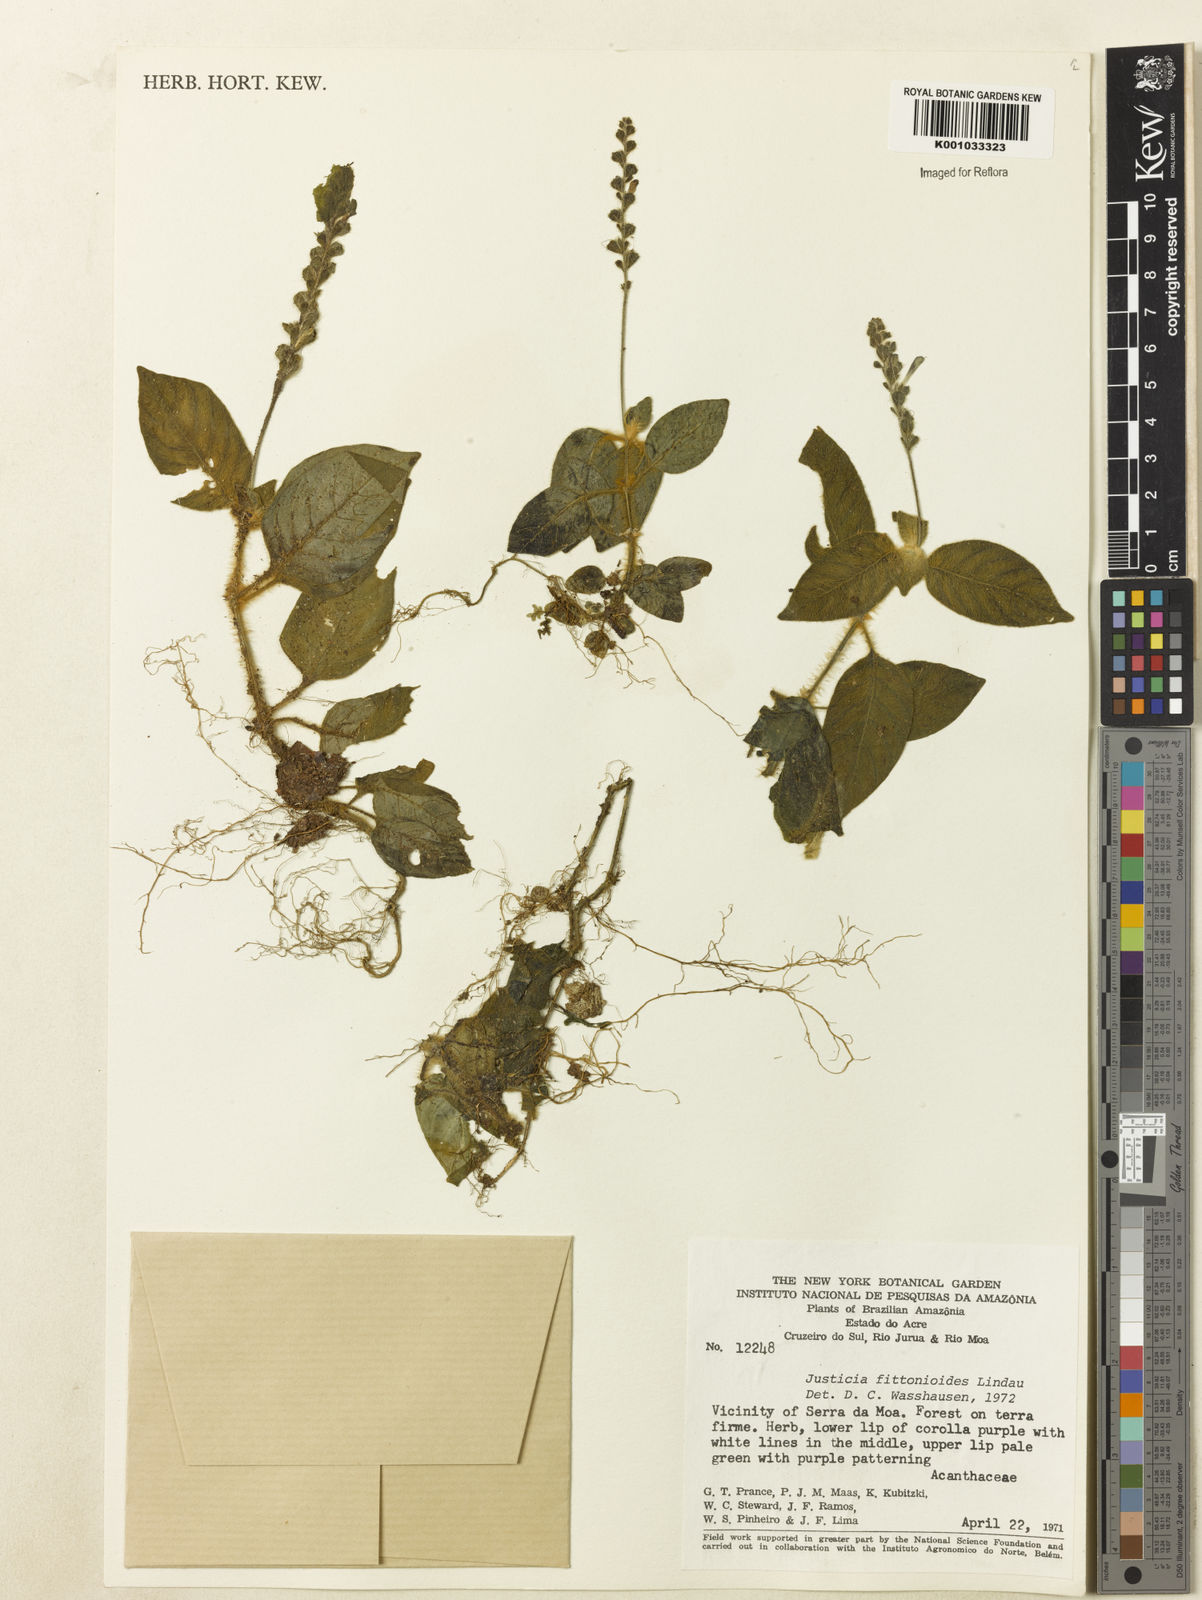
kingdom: Plantae
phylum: Tracheophyta
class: Magnoliopsida
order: Lamiales
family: Acanthaceae
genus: Justicia
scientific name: Justicia volkeri
